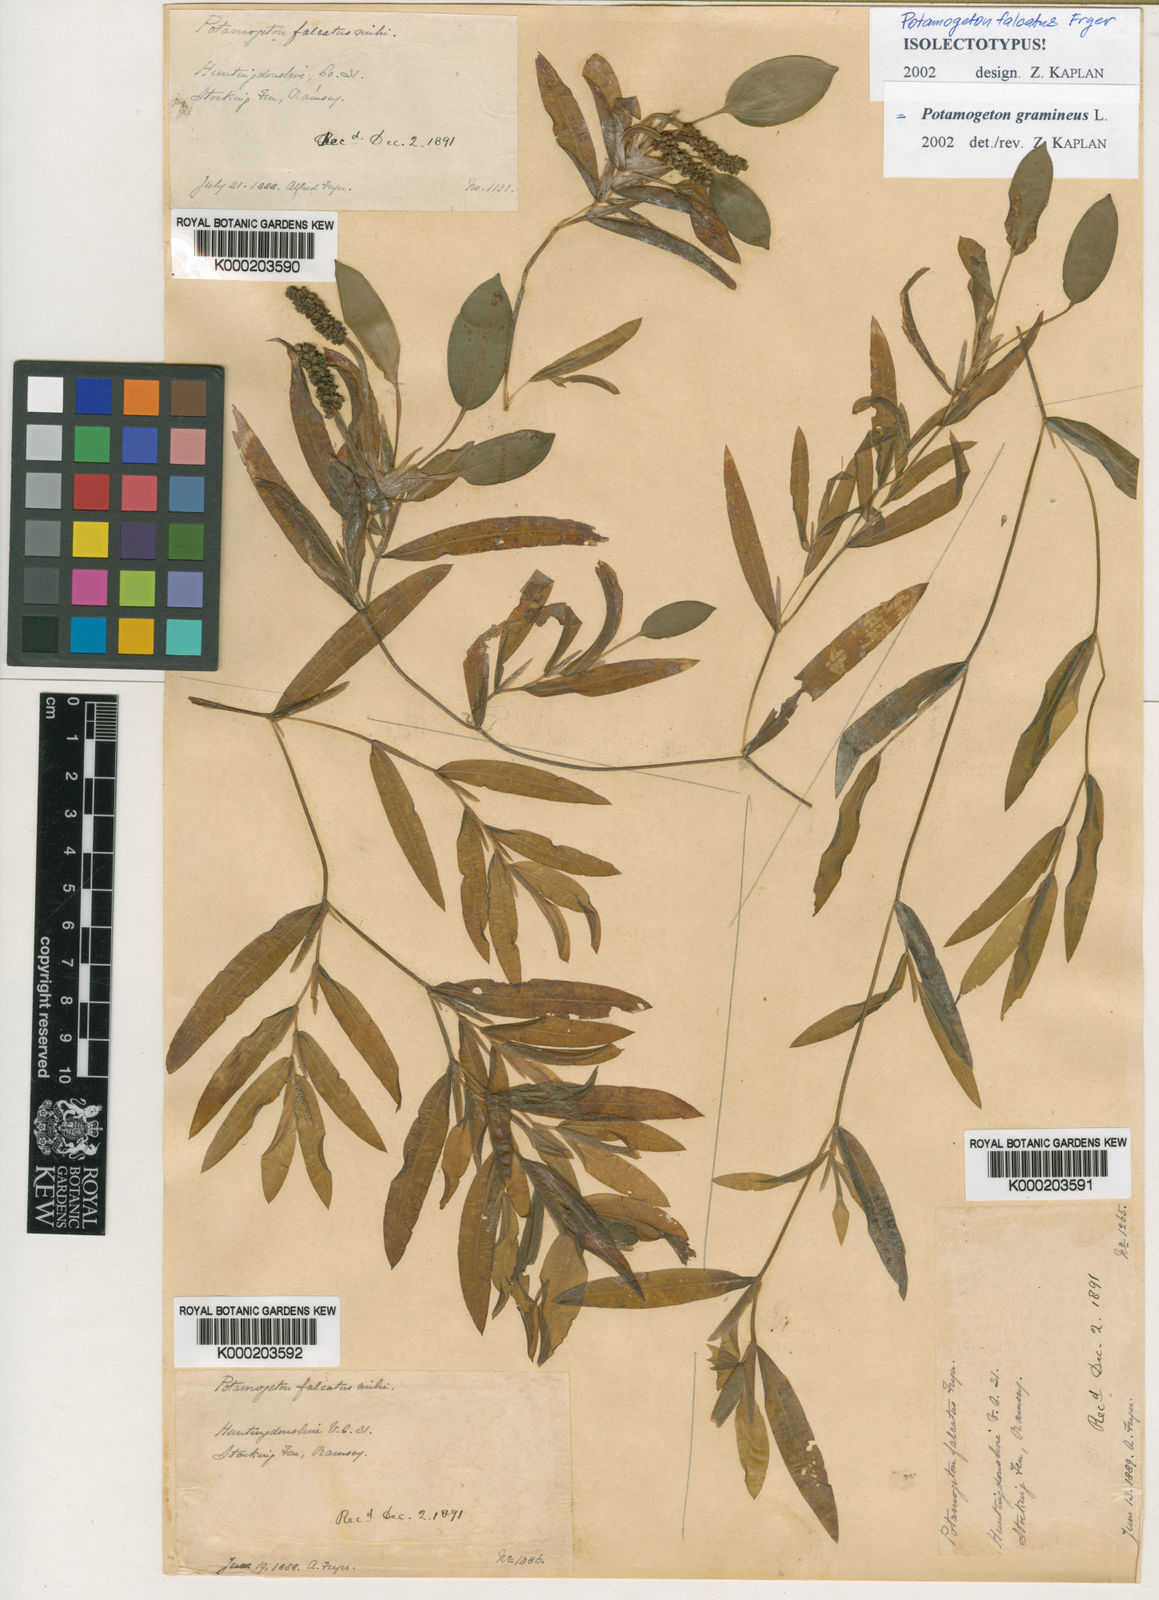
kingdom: Plantae
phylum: Tracheophyta
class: Liliopsida
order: Alismatales
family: Potamogetonaceae
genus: Potamogeton
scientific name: Potamogeton gramineus
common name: Various-leaved pondweed
